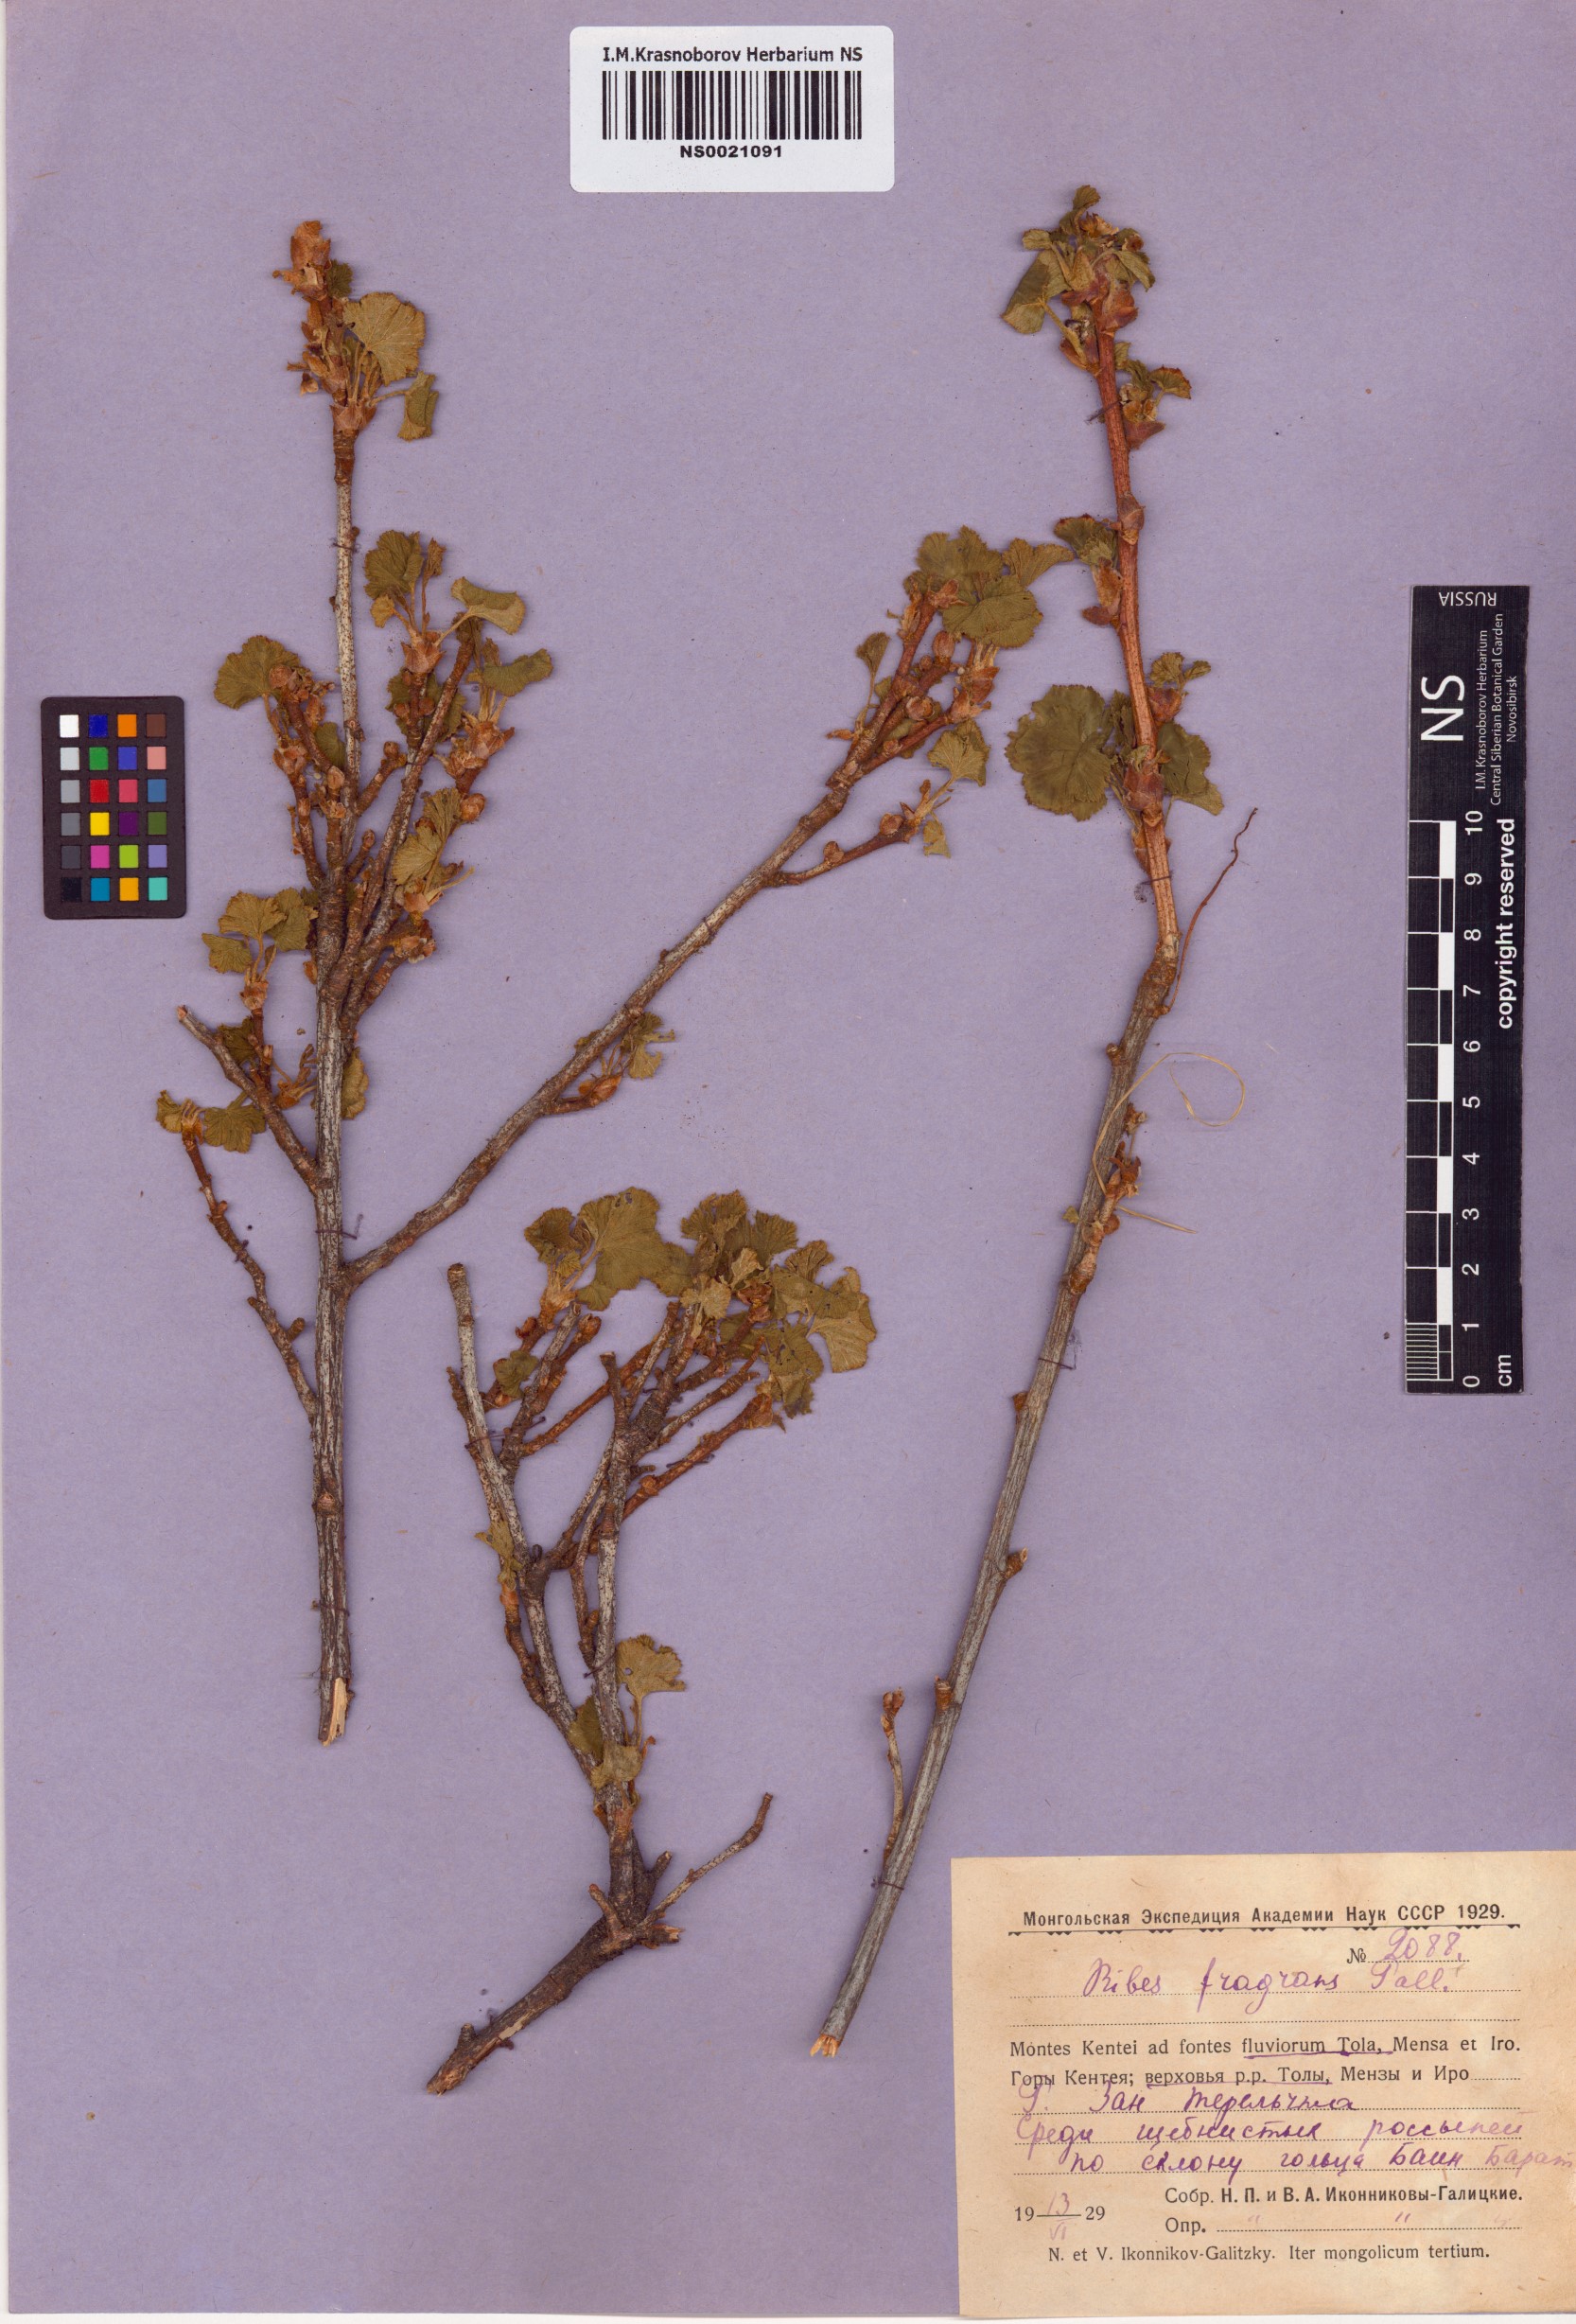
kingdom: Plantae
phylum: Tracheophyta
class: Magnoliopsida
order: Saxifragales
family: Grossulariaceae
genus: Ribes
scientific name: Ribes fragrans
